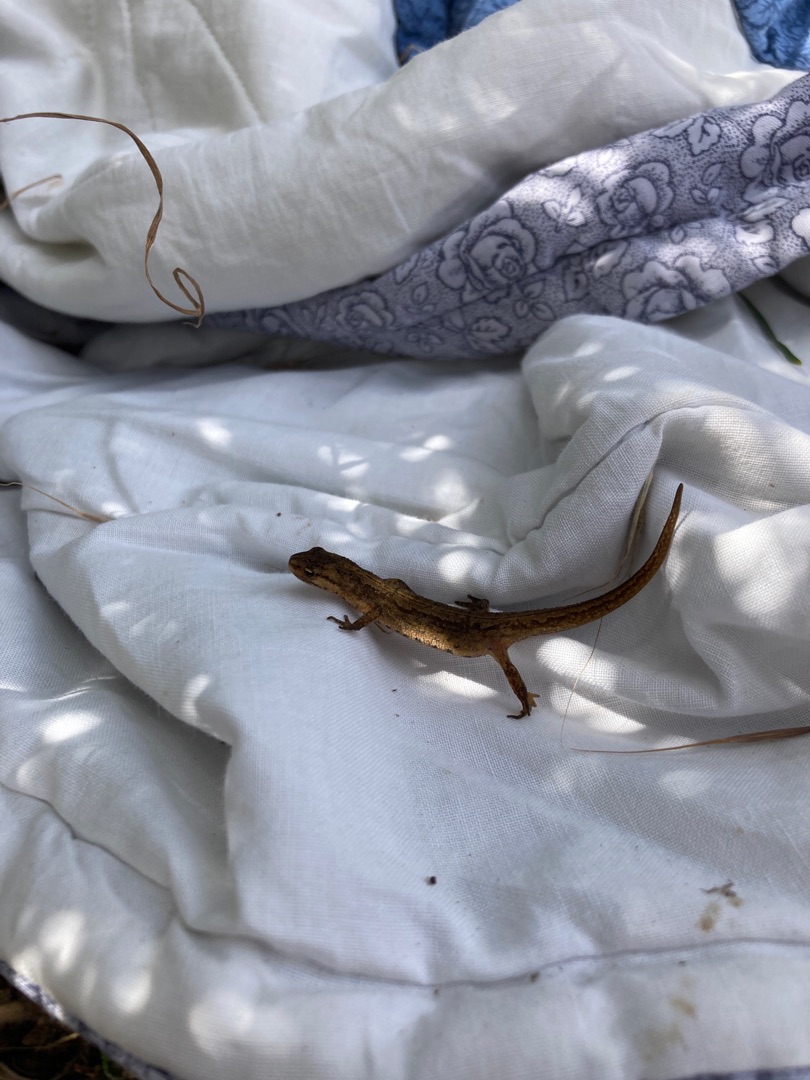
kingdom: Animalia
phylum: Chordata
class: Amphibia
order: Caudata
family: Salamandridae
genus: Lissotriton
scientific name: Lissotriton vulgaris
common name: Lille vandsalamander
